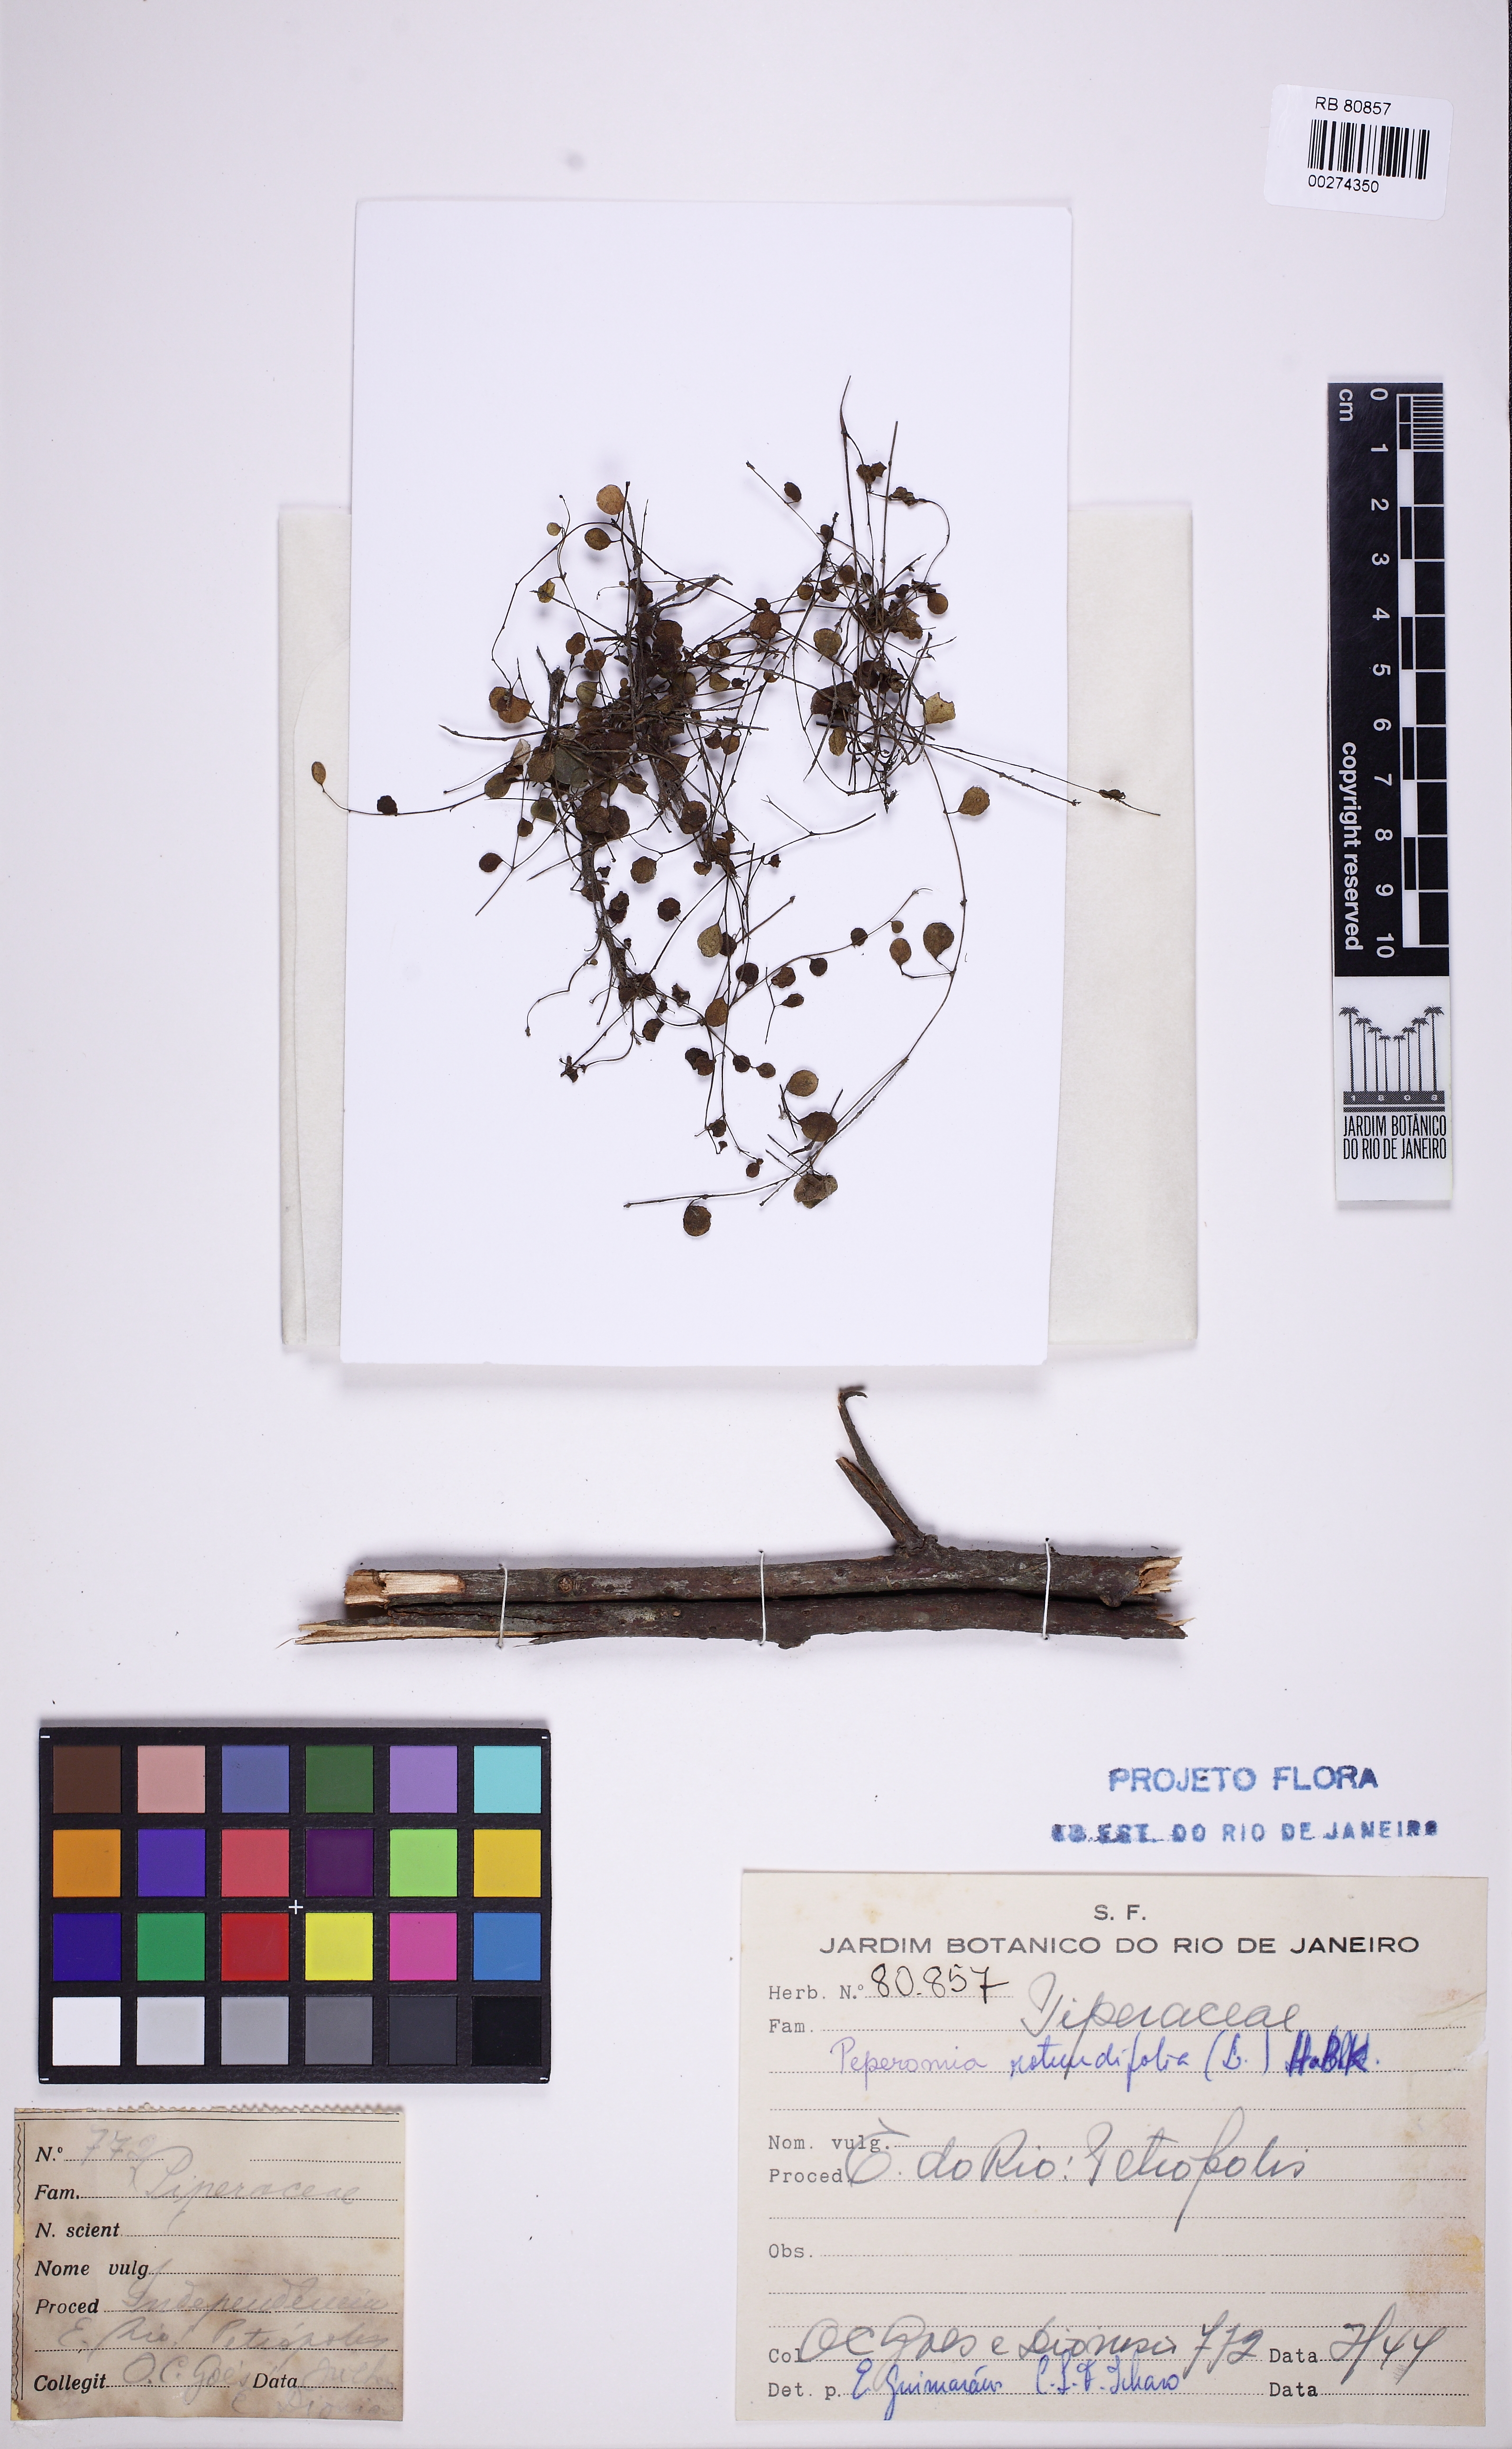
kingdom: Plantae
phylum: Tracheophyta
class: Magnoliopsida
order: Piperales
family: Piperaceae
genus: Peperomia
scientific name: Peperomia rotundifolia
